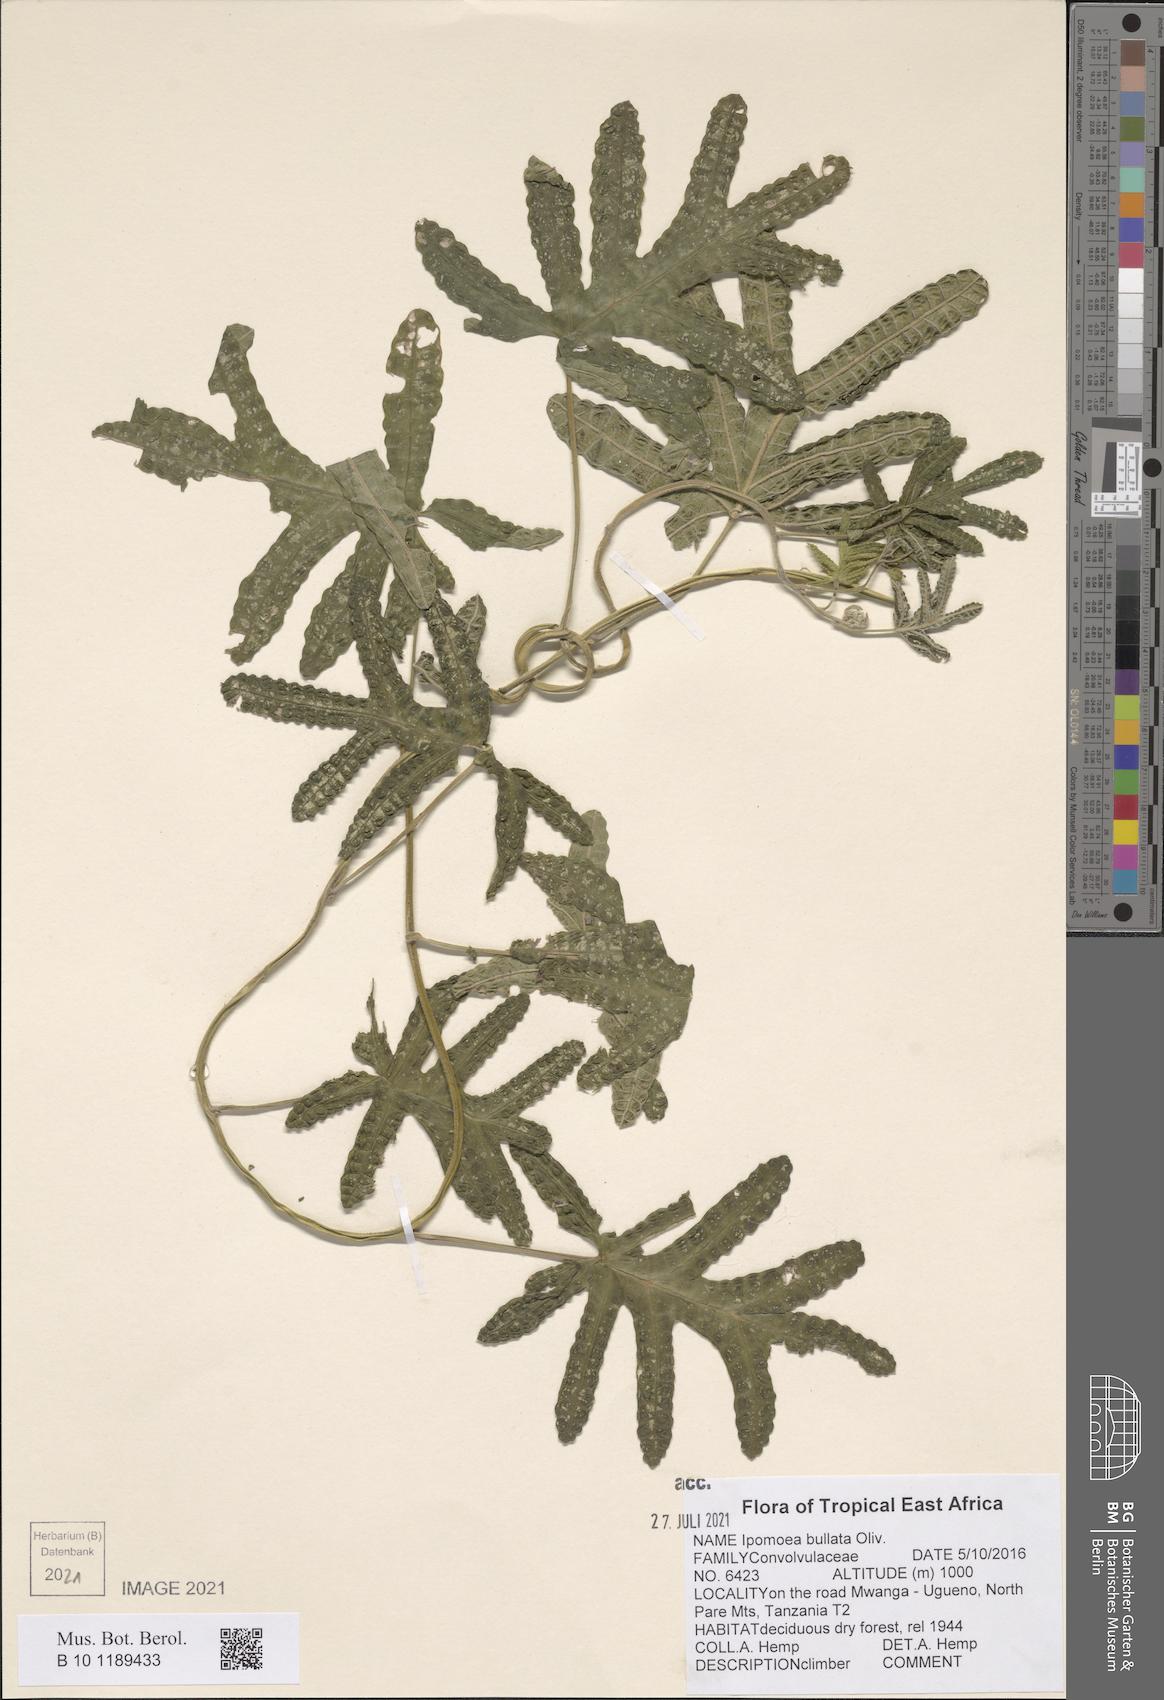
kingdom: Plantae
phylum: Tracheophyta
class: Magnoliopsida
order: Solanales
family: Convolvulaceae
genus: Ipomoea
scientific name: Ipomoea bullata
